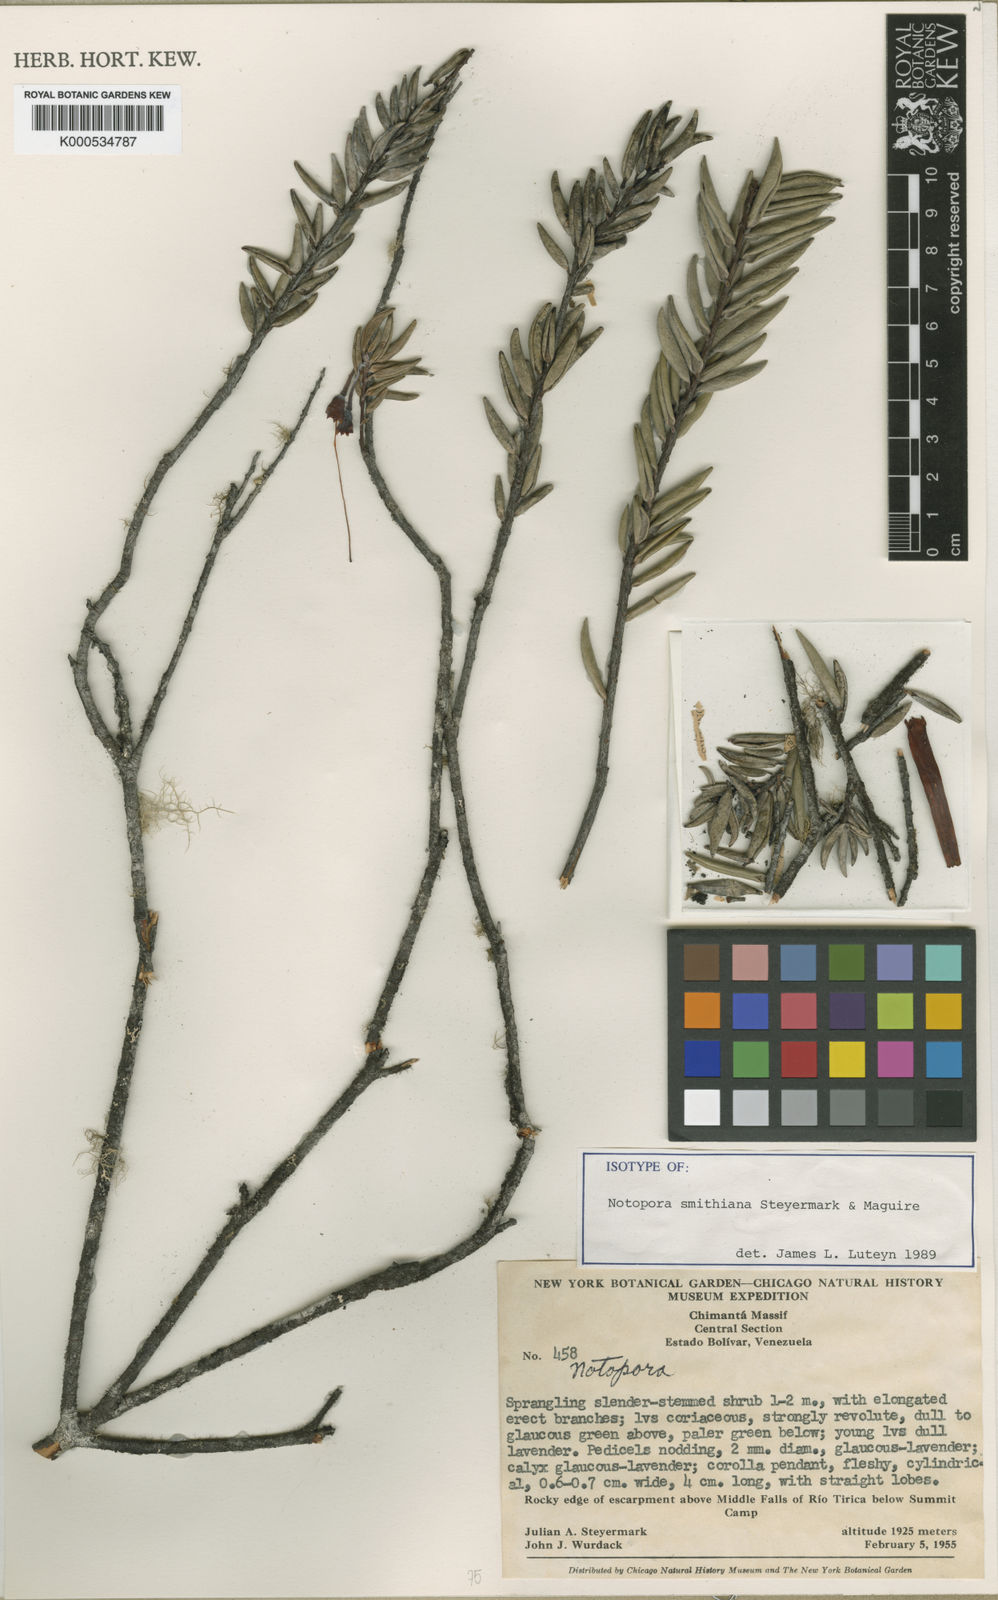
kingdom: Plantae
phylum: Tracheophyta
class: Magnoliopsida
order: Ericales
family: Ericaceae
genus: Notopora
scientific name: Notopora smithiana
